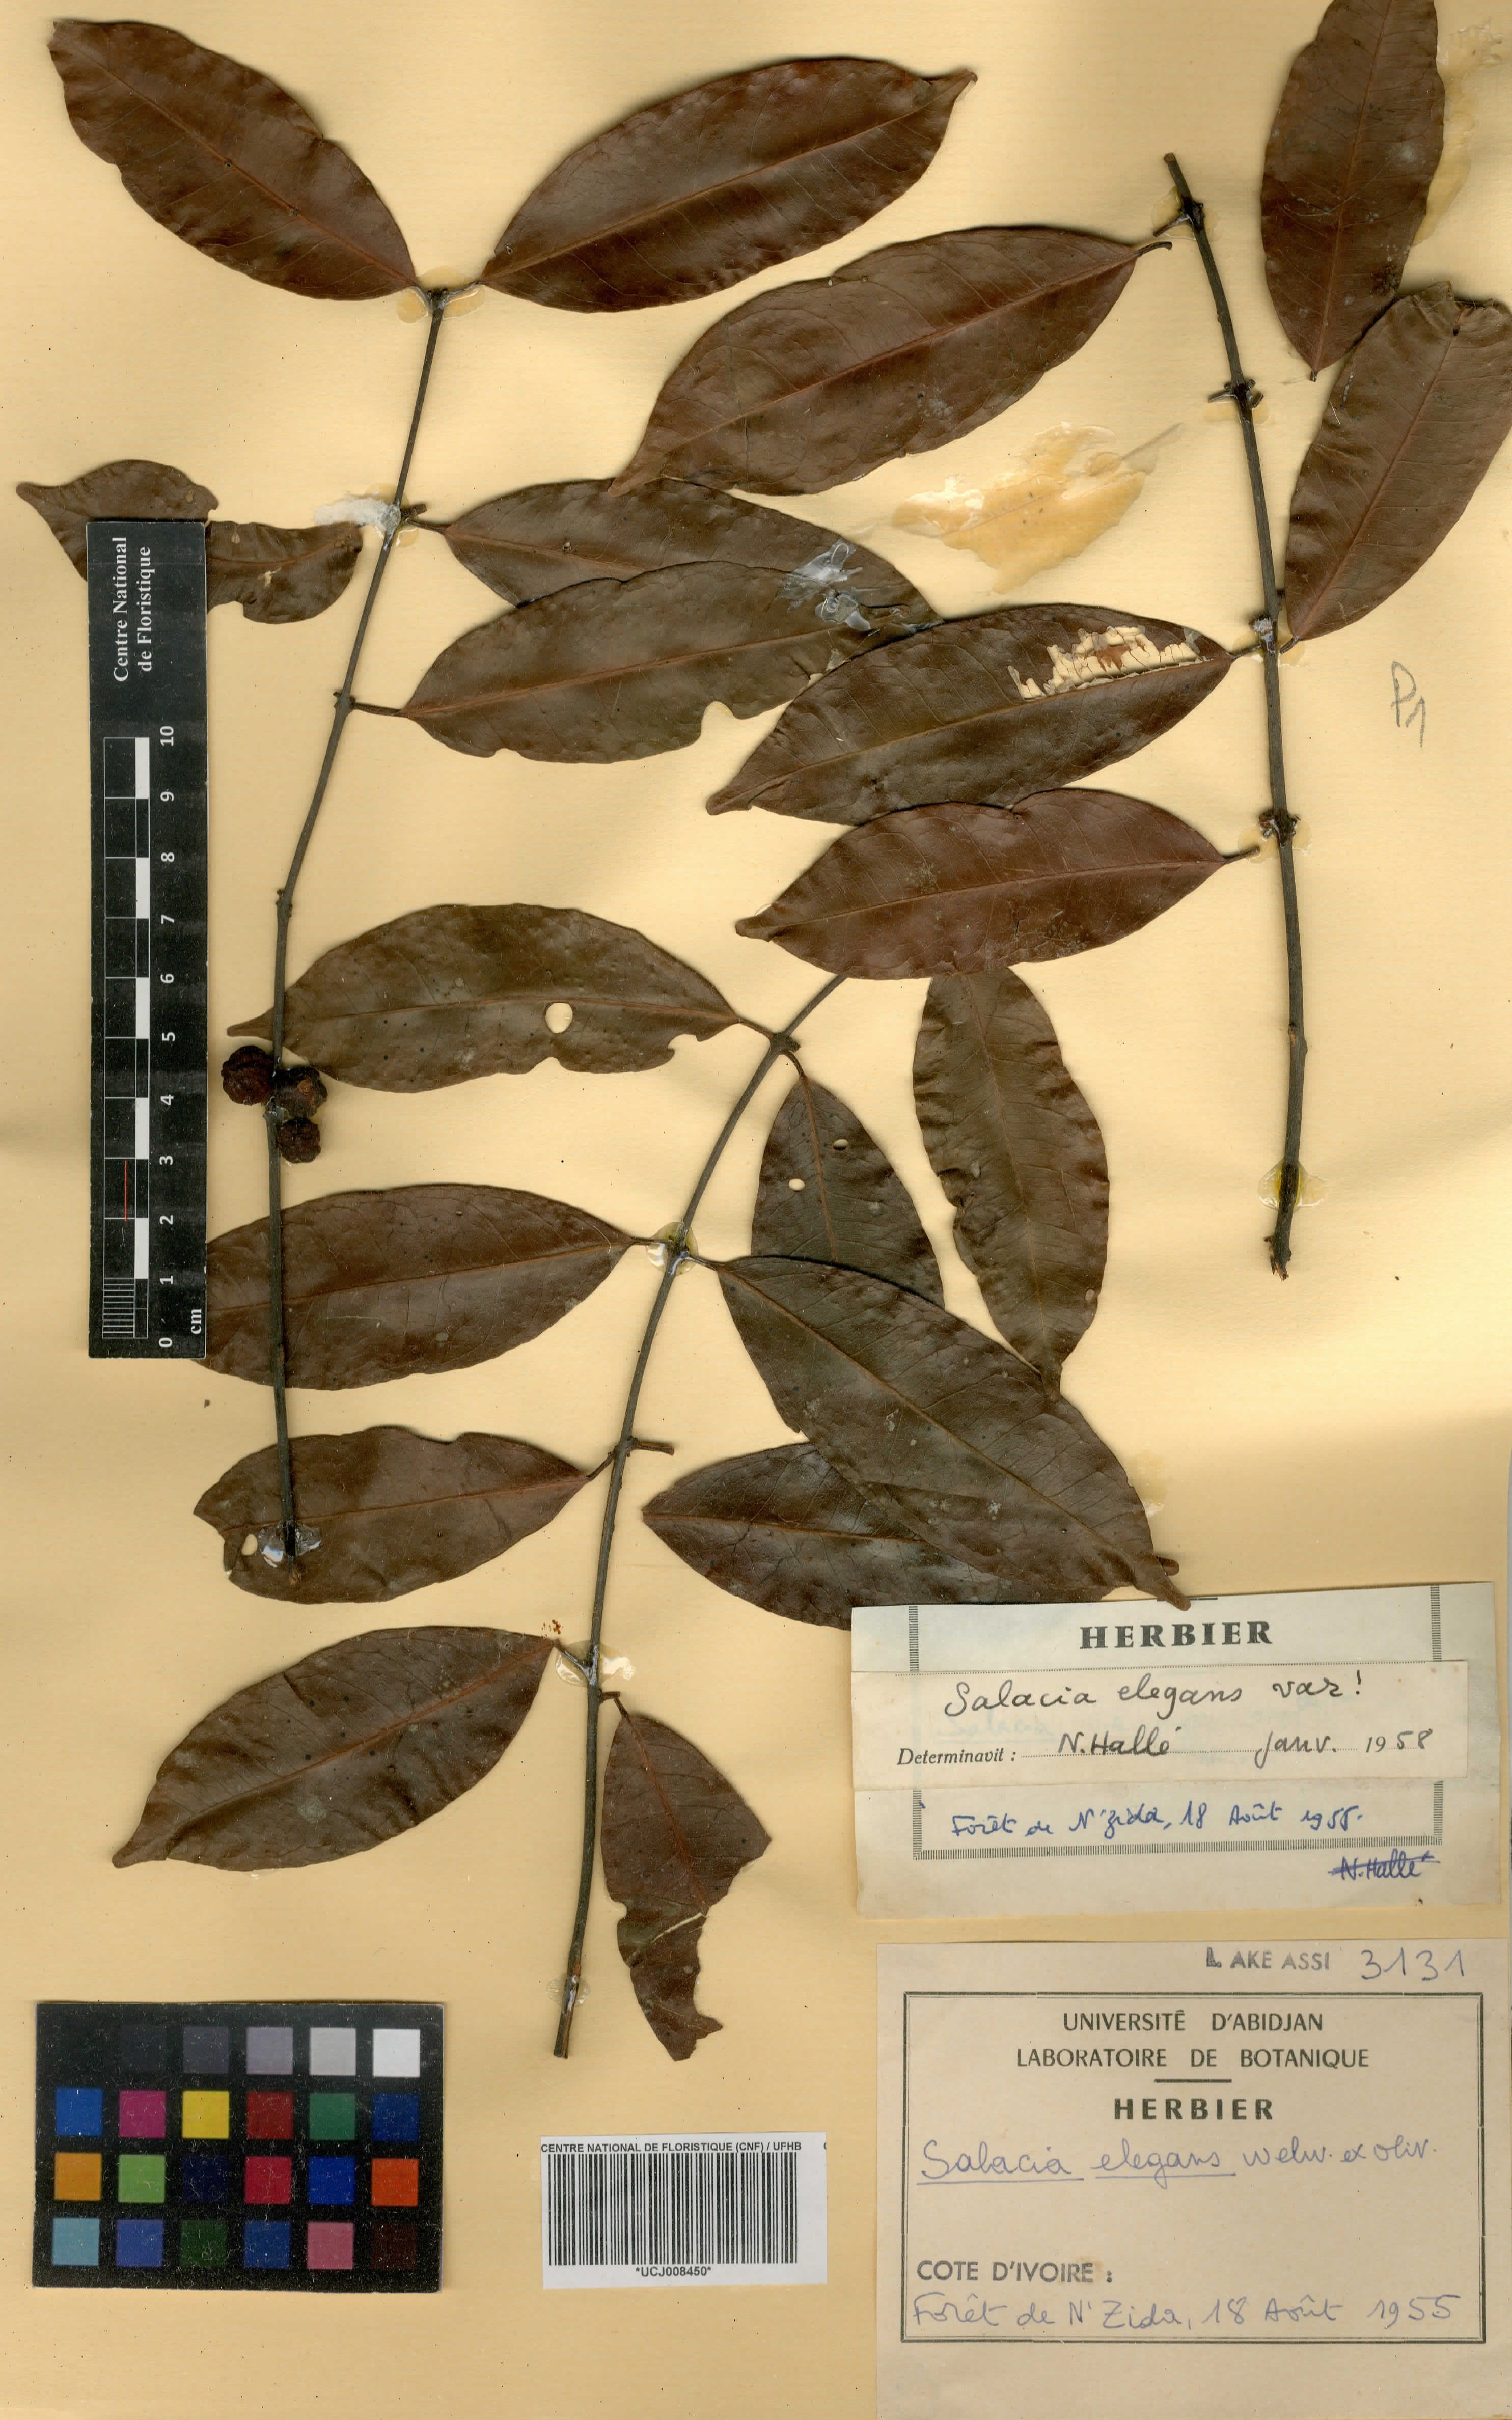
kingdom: Plantae
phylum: Tracheophyta
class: Magnoliopsida
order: Celastrales
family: Celastraceae
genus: Salacia
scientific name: Salacia elegans
